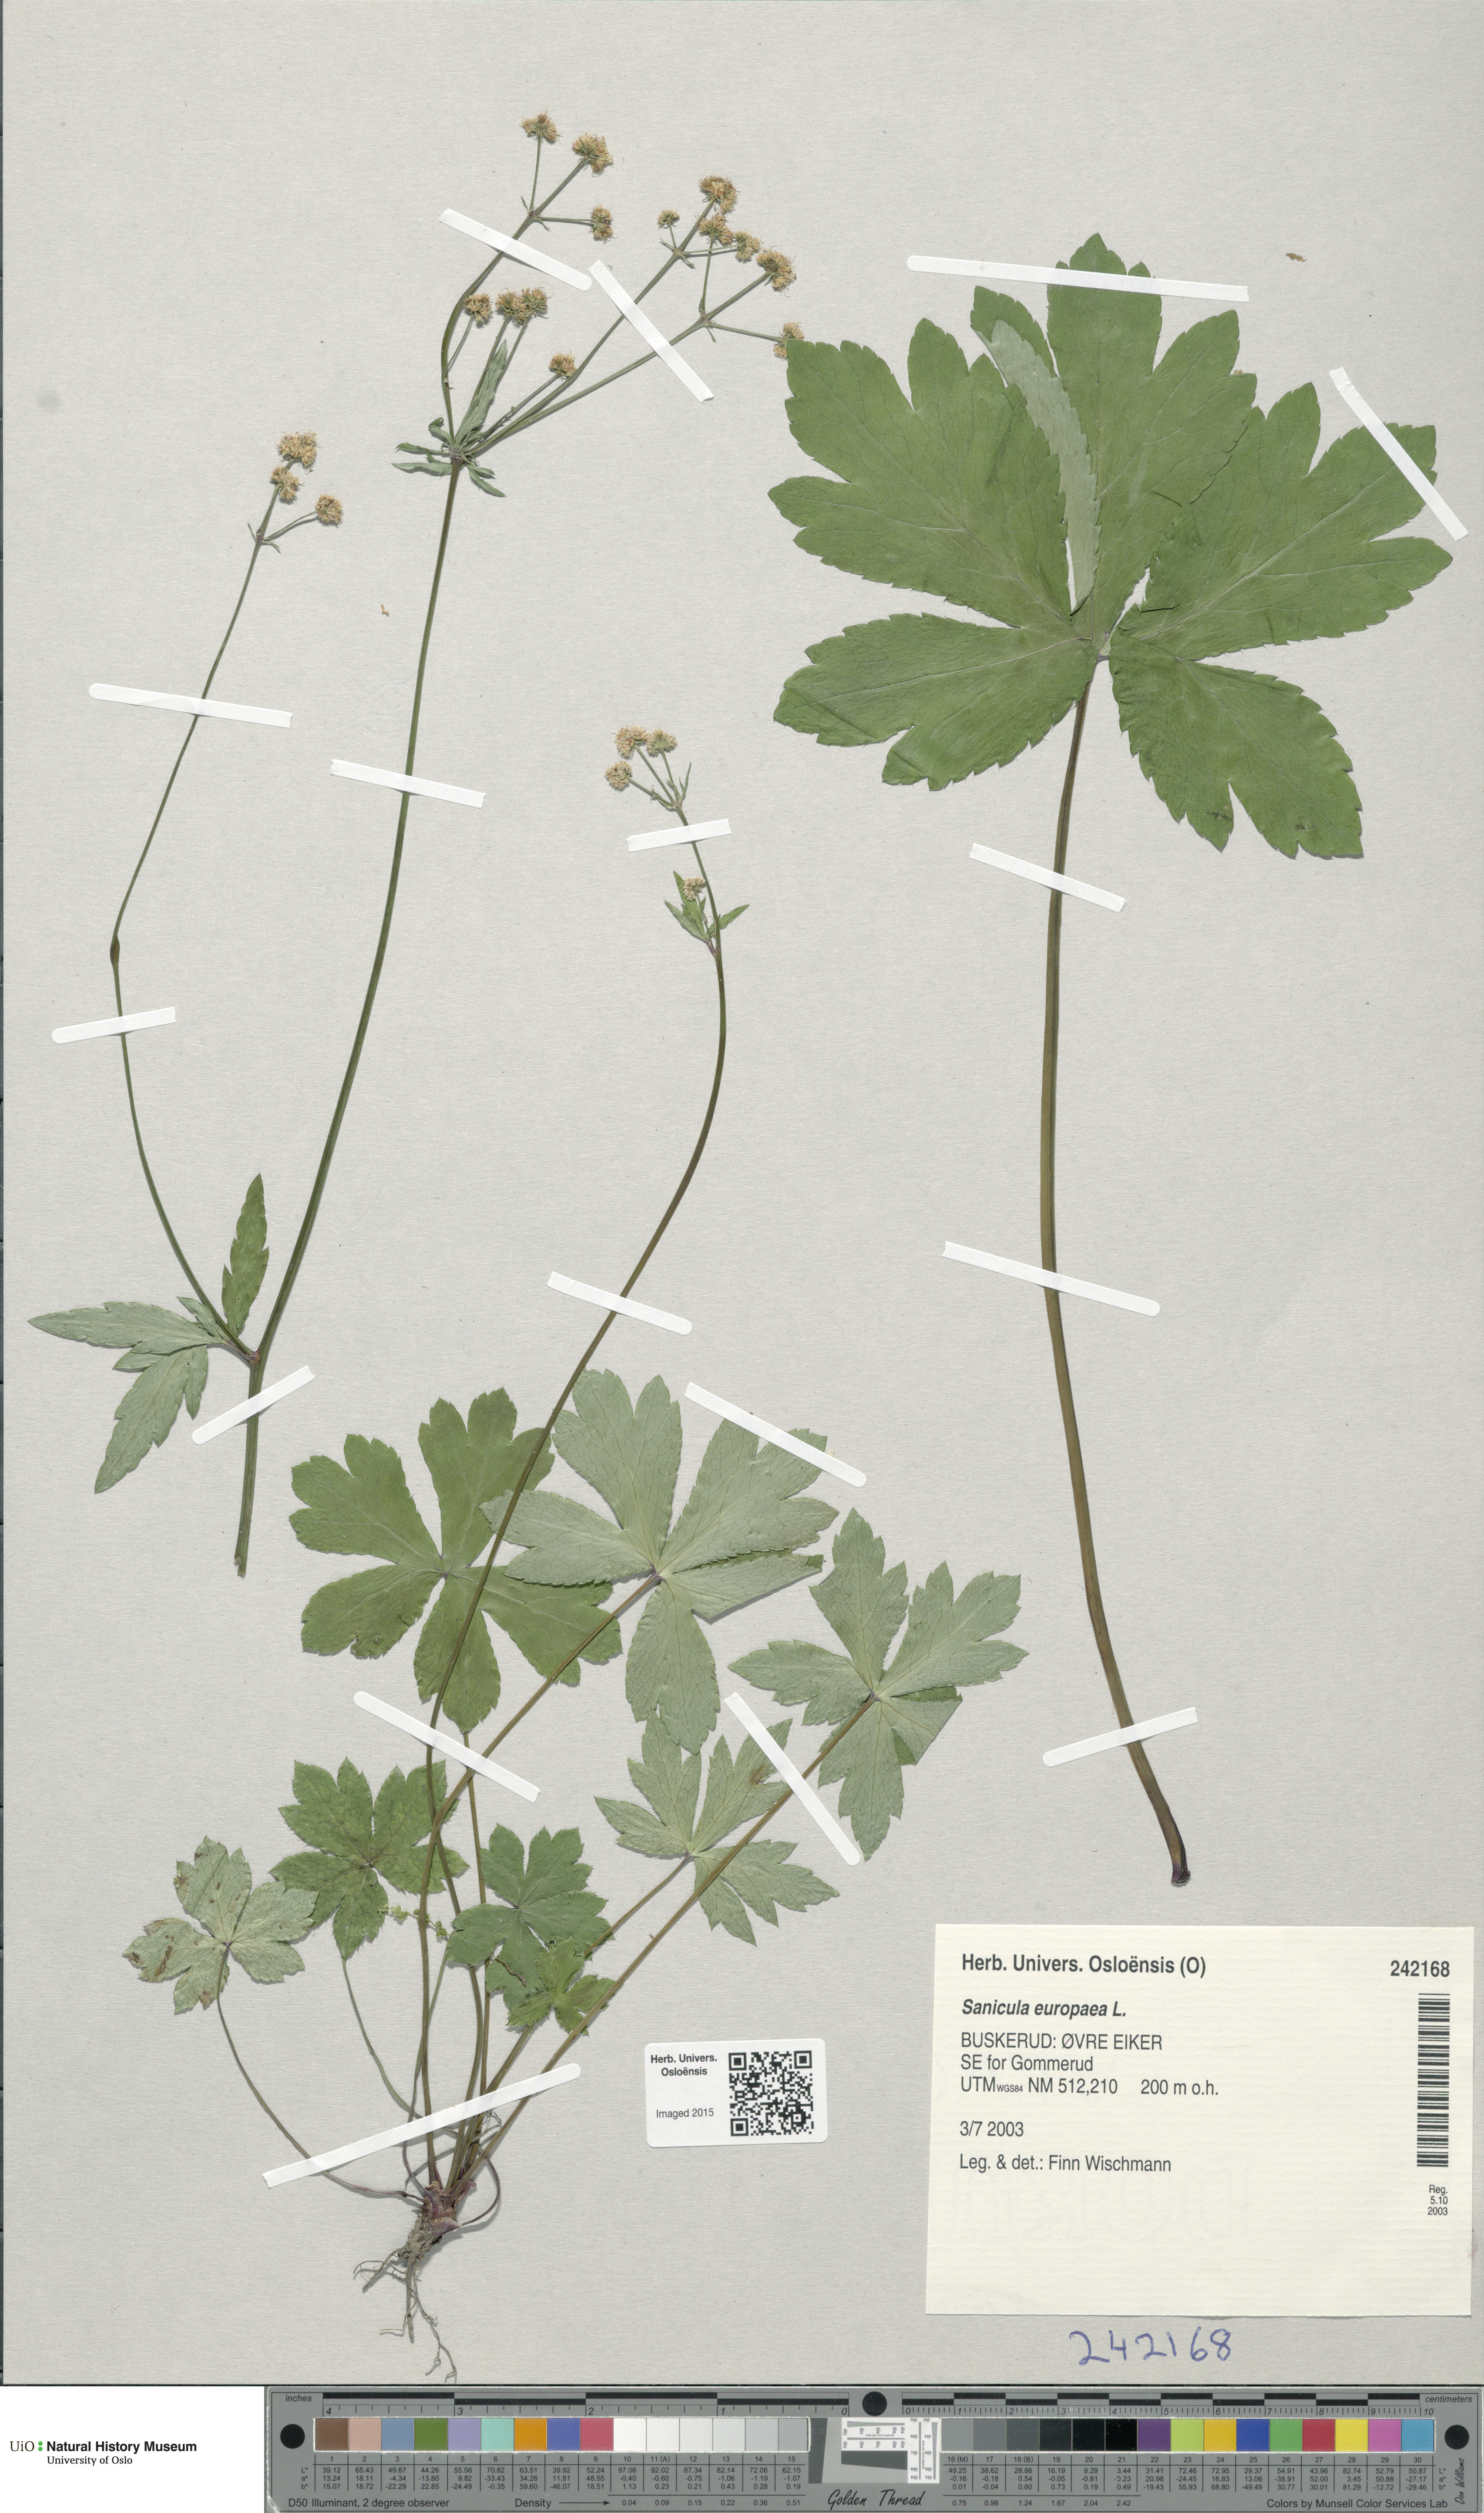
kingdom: Plantae
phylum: Tracheophyta
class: Magnoliopsida
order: Apiales
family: Apiaceae
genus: Sanicula
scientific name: Sanicula europaea
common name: Sanicle
